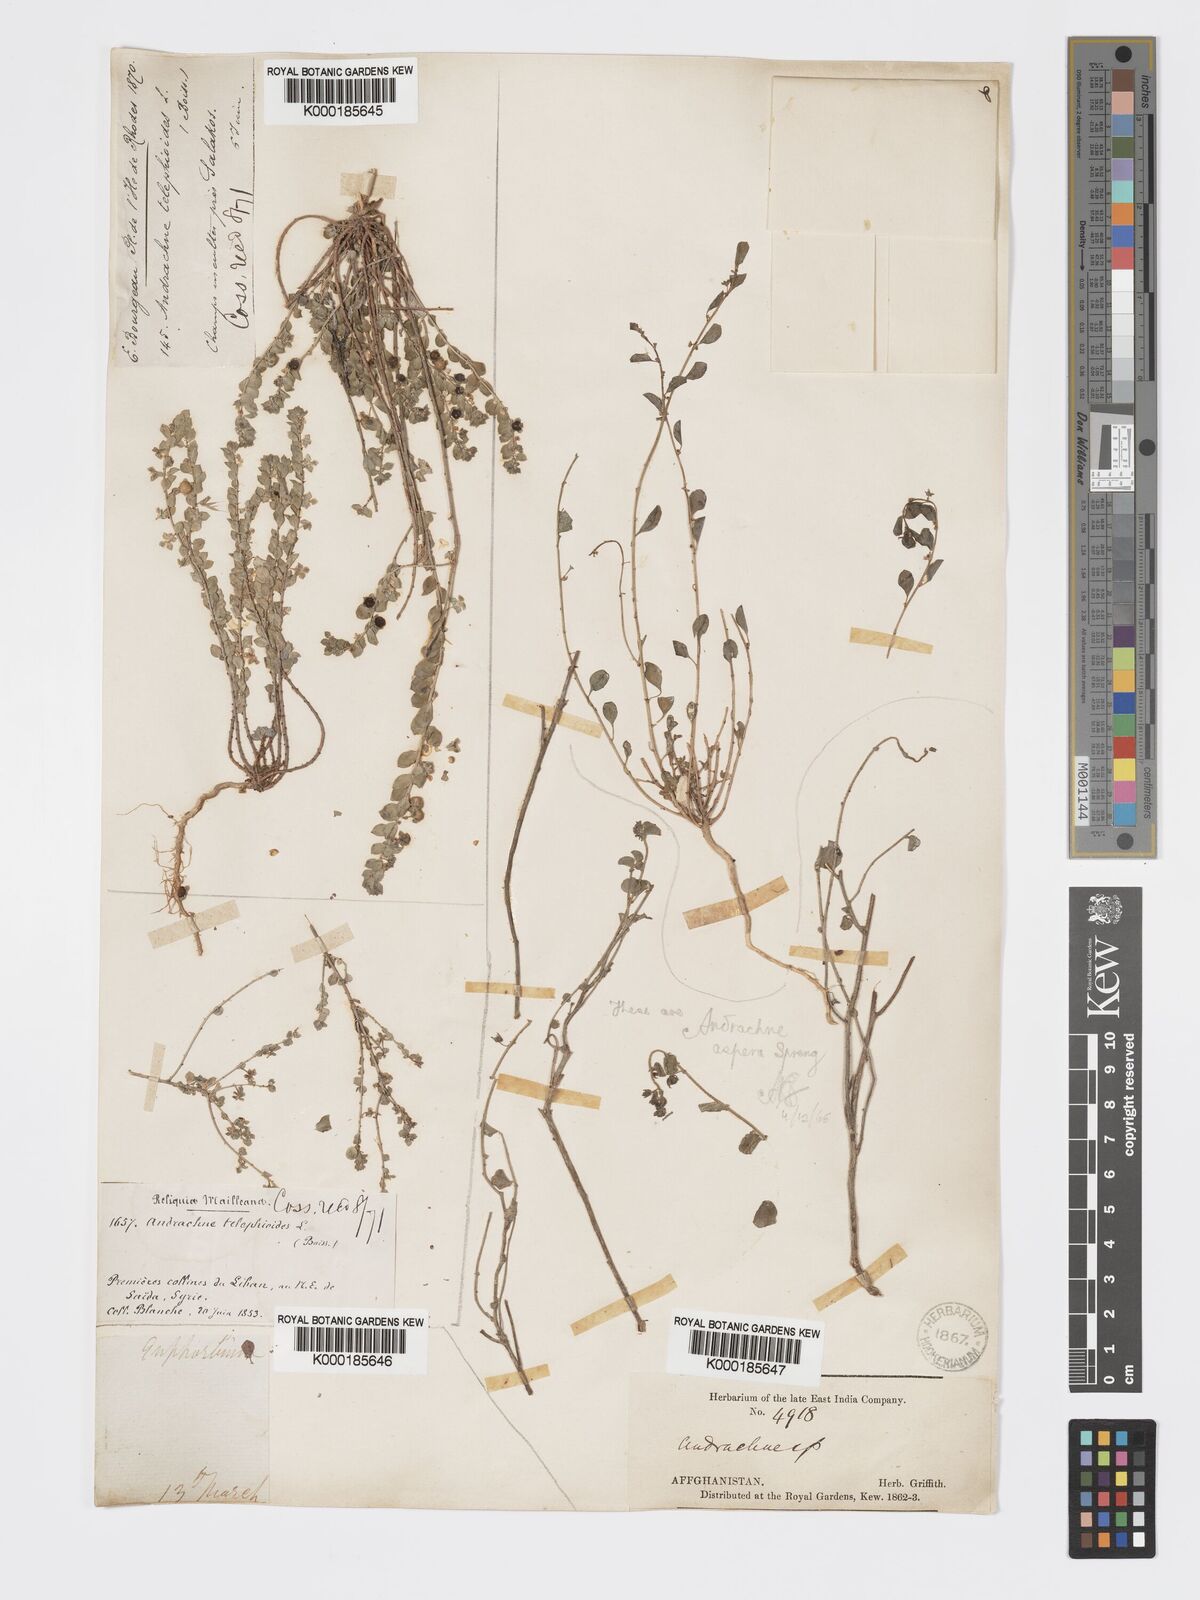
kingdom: Plantae
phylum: Tracheophyta
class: Magnoliopsida
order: Malpighiales
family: Phyllanthaceae
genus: Andrachne
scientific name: Andrachne aspera
